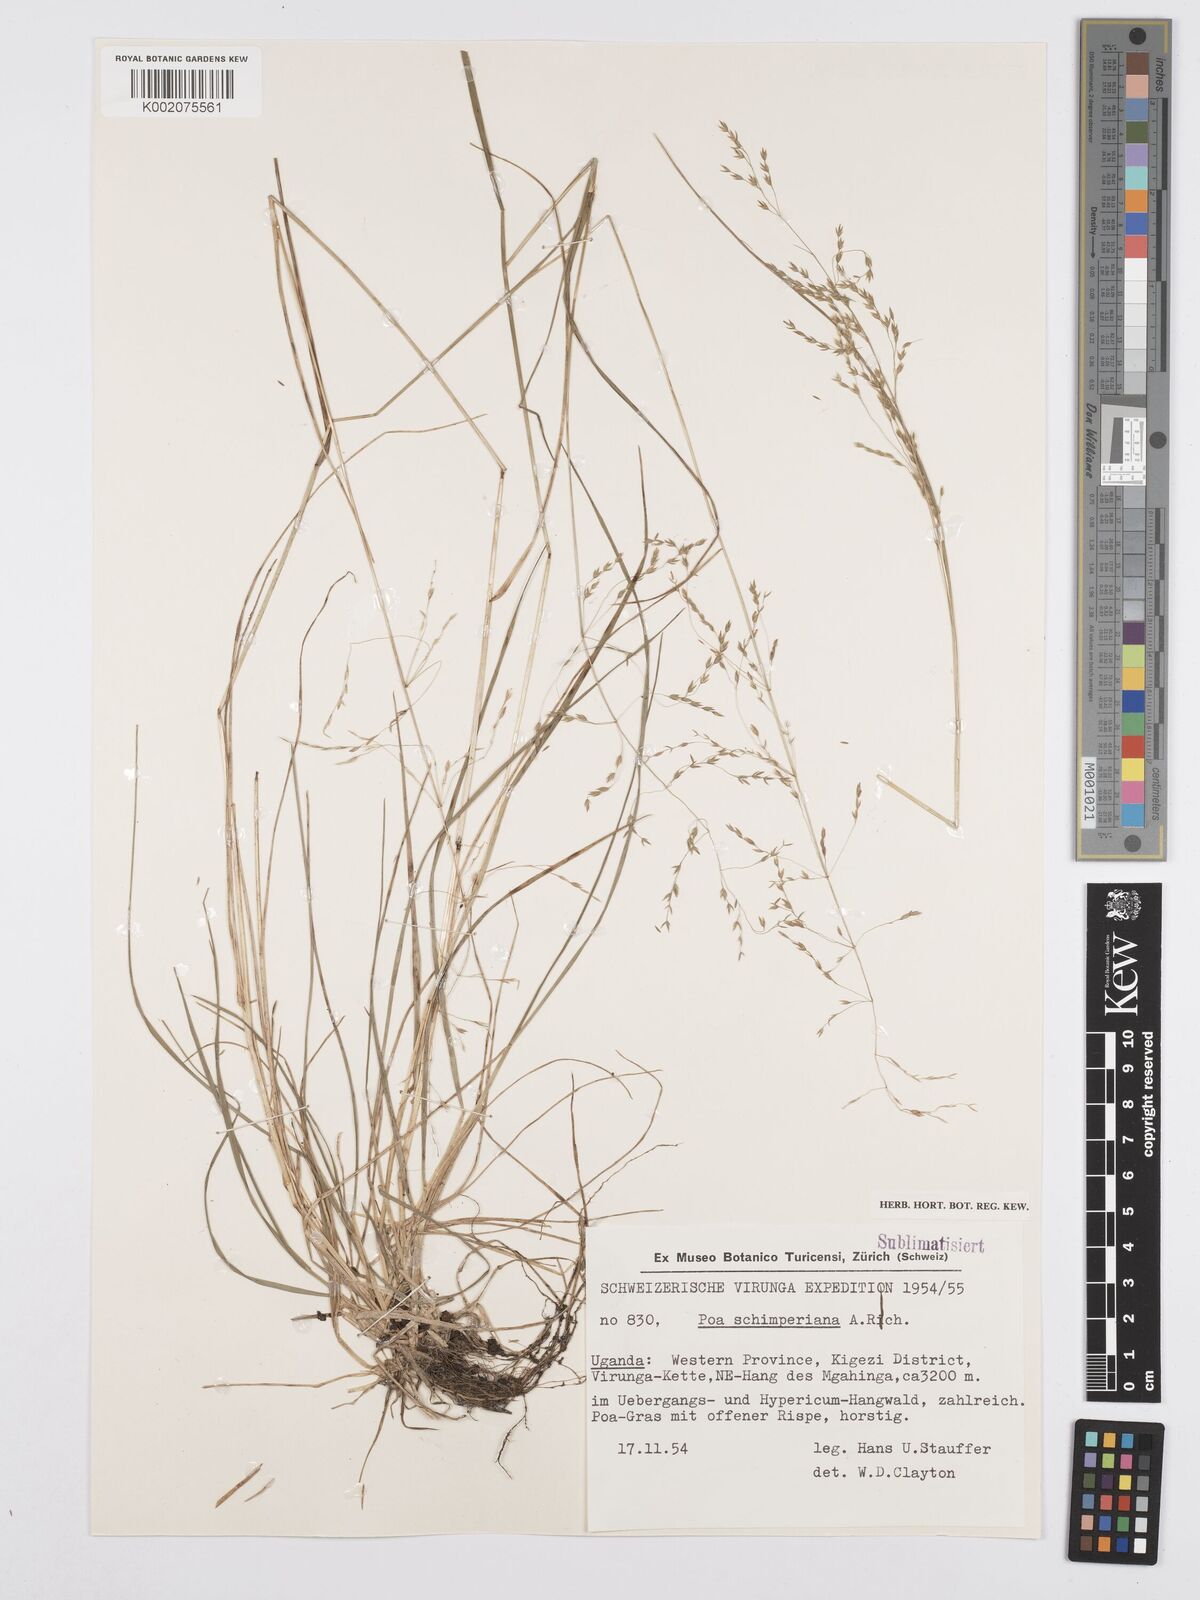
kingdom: Plantae
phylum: Tracheophyta
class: Liliopsida
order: Poales
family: Poaceae
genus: Poa
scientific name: Poa schimperiana
